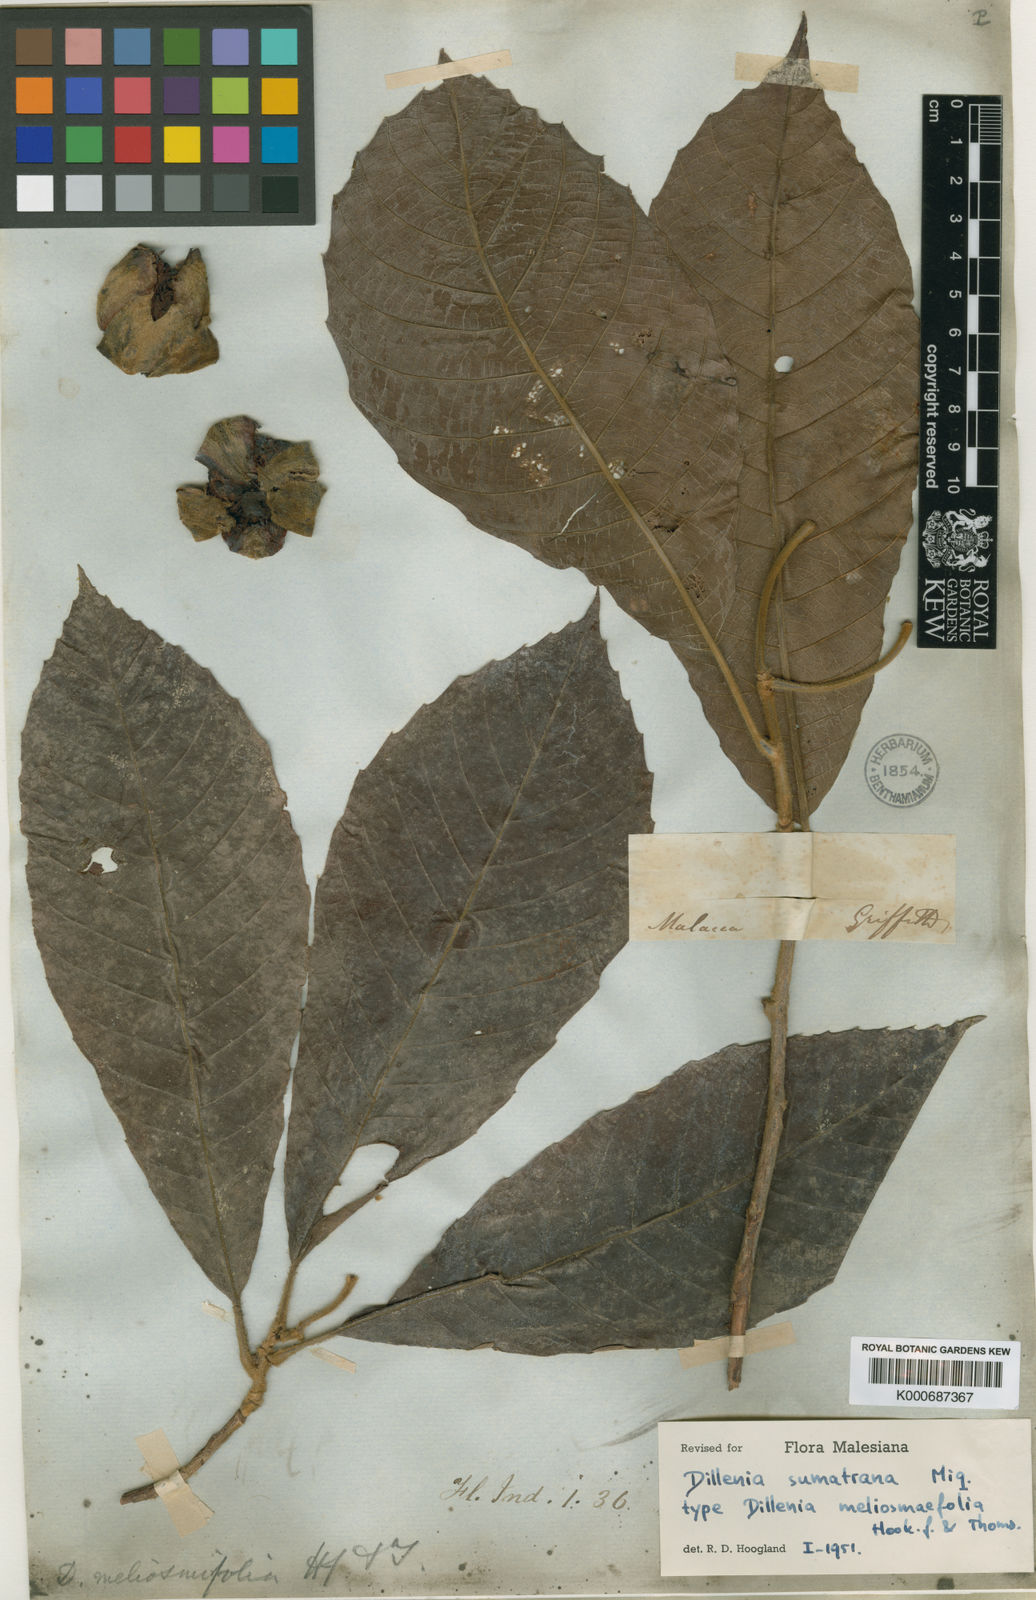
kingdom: Plantae
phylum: Tracheophyta
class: Magnoliopsida
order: Dilleniales
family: Dilleniaceae
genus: Dillenia
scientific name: Dillenia sumatrana
